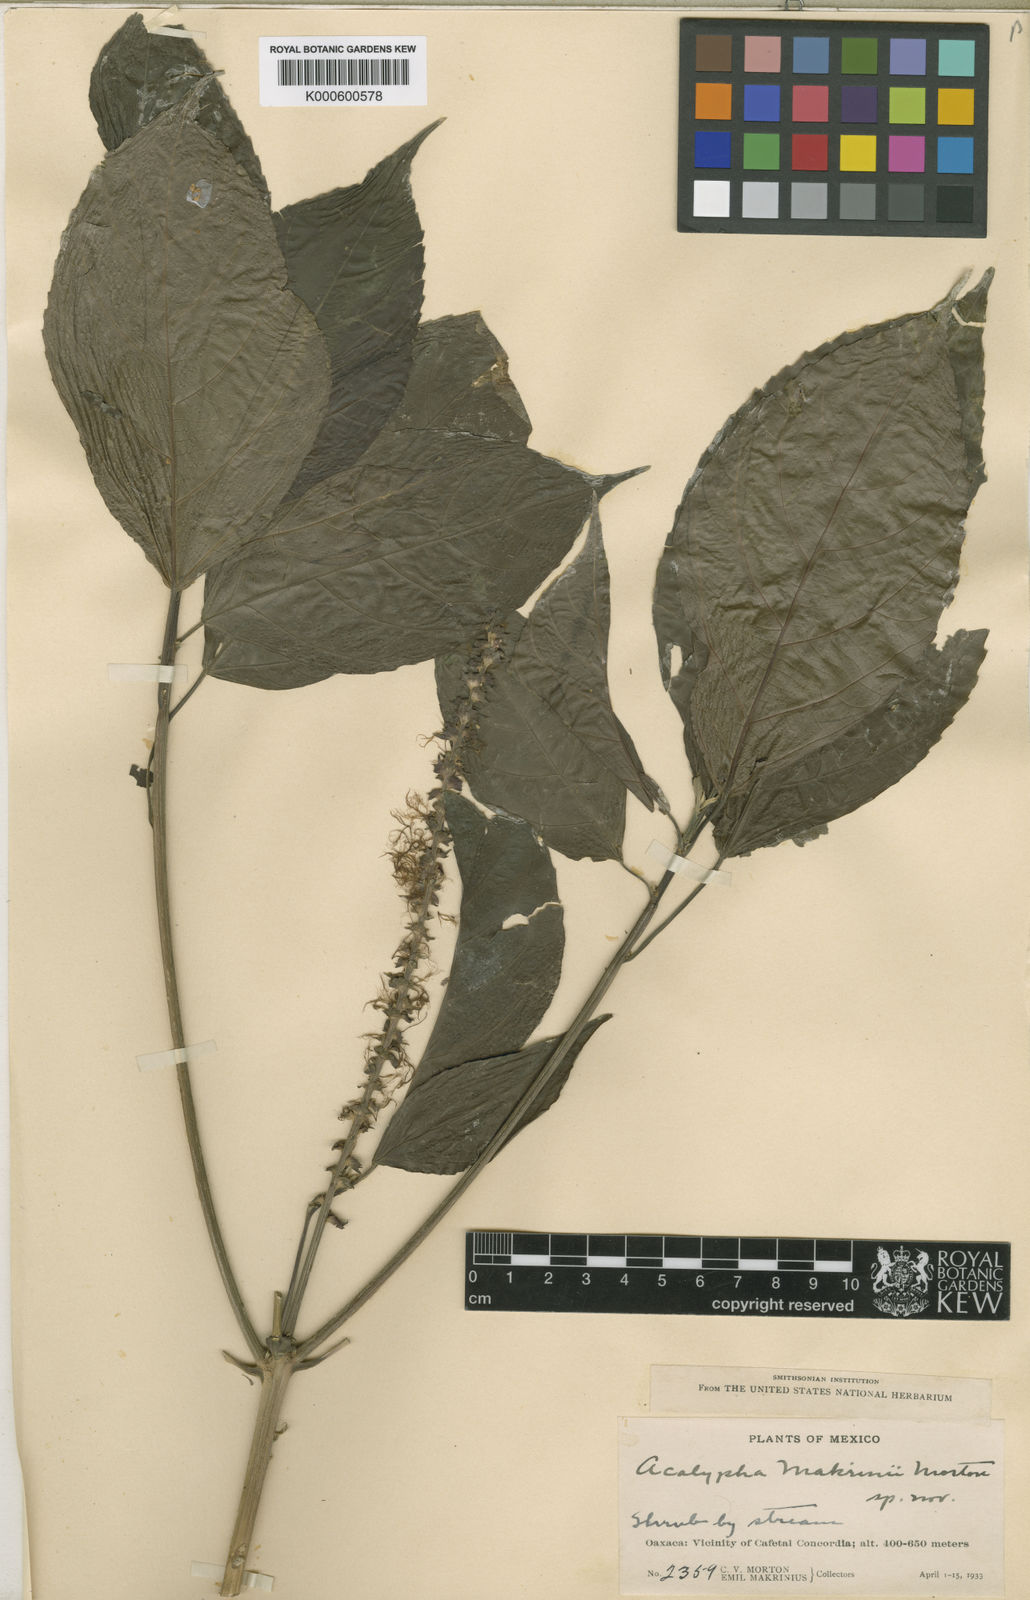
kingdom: Plantae
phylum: Tracheophyta
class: Magnoliopsida
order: Malpighiales
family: Euphorbiaceae
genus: Acalypha
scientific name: Acalypha
